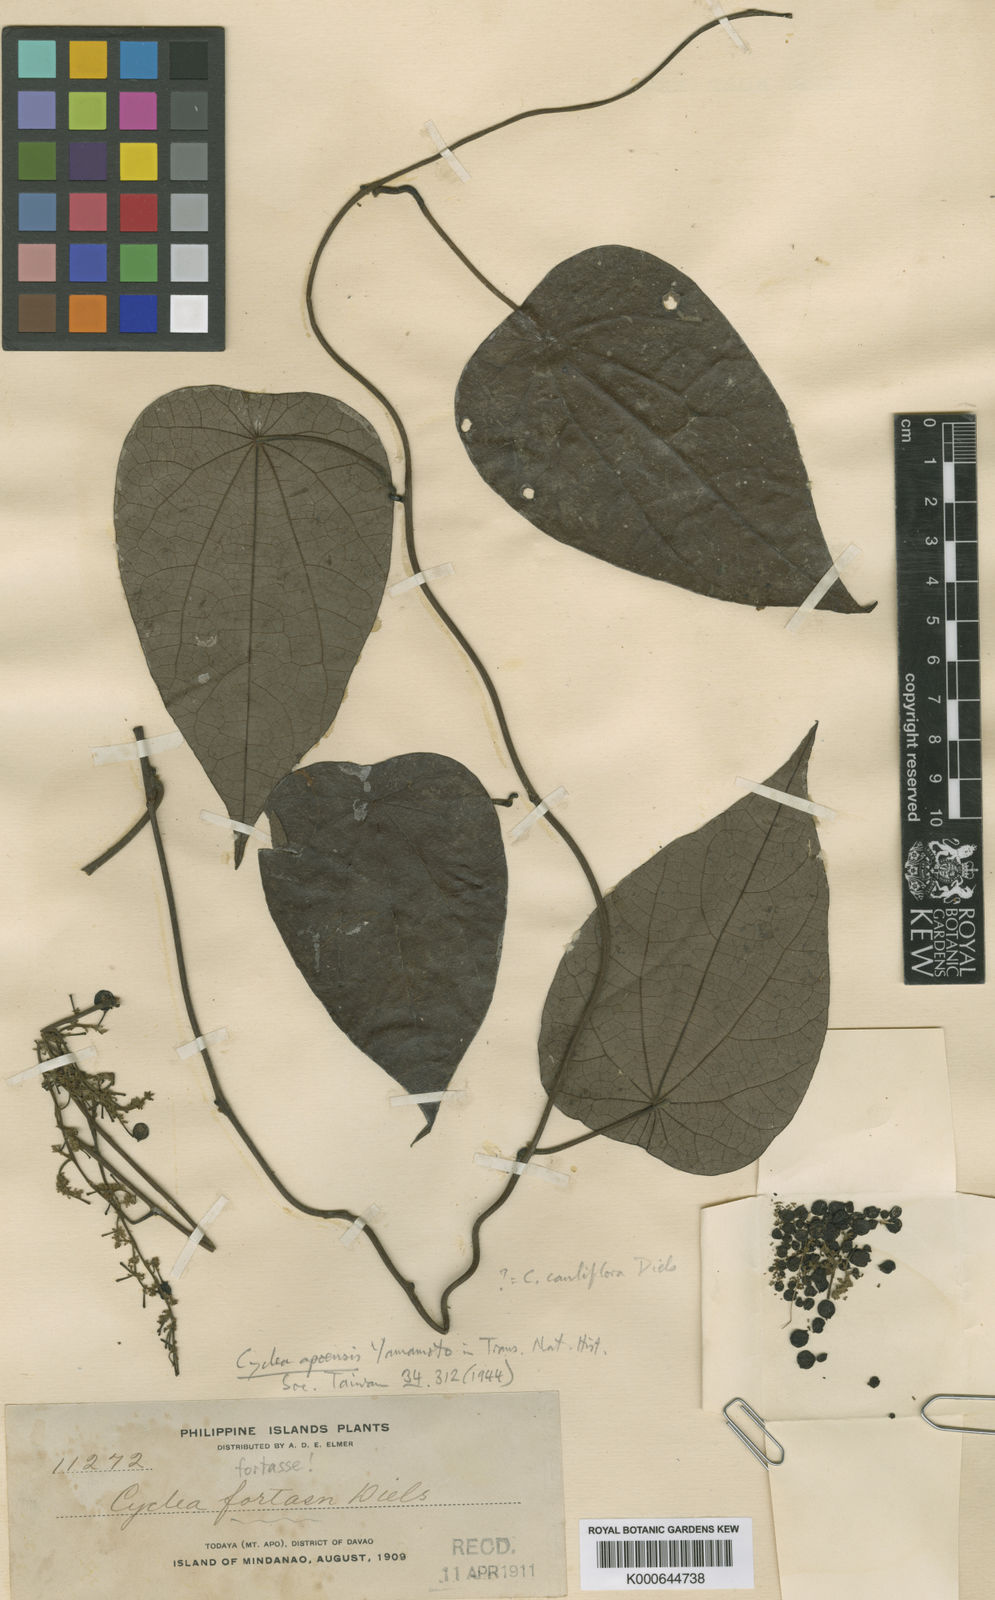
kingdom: Plantae
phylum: Tracheophyta
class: Magnoliopsida
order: Ranunculales
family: Menispermaceae
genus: Cyclea
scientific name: Cyclea
